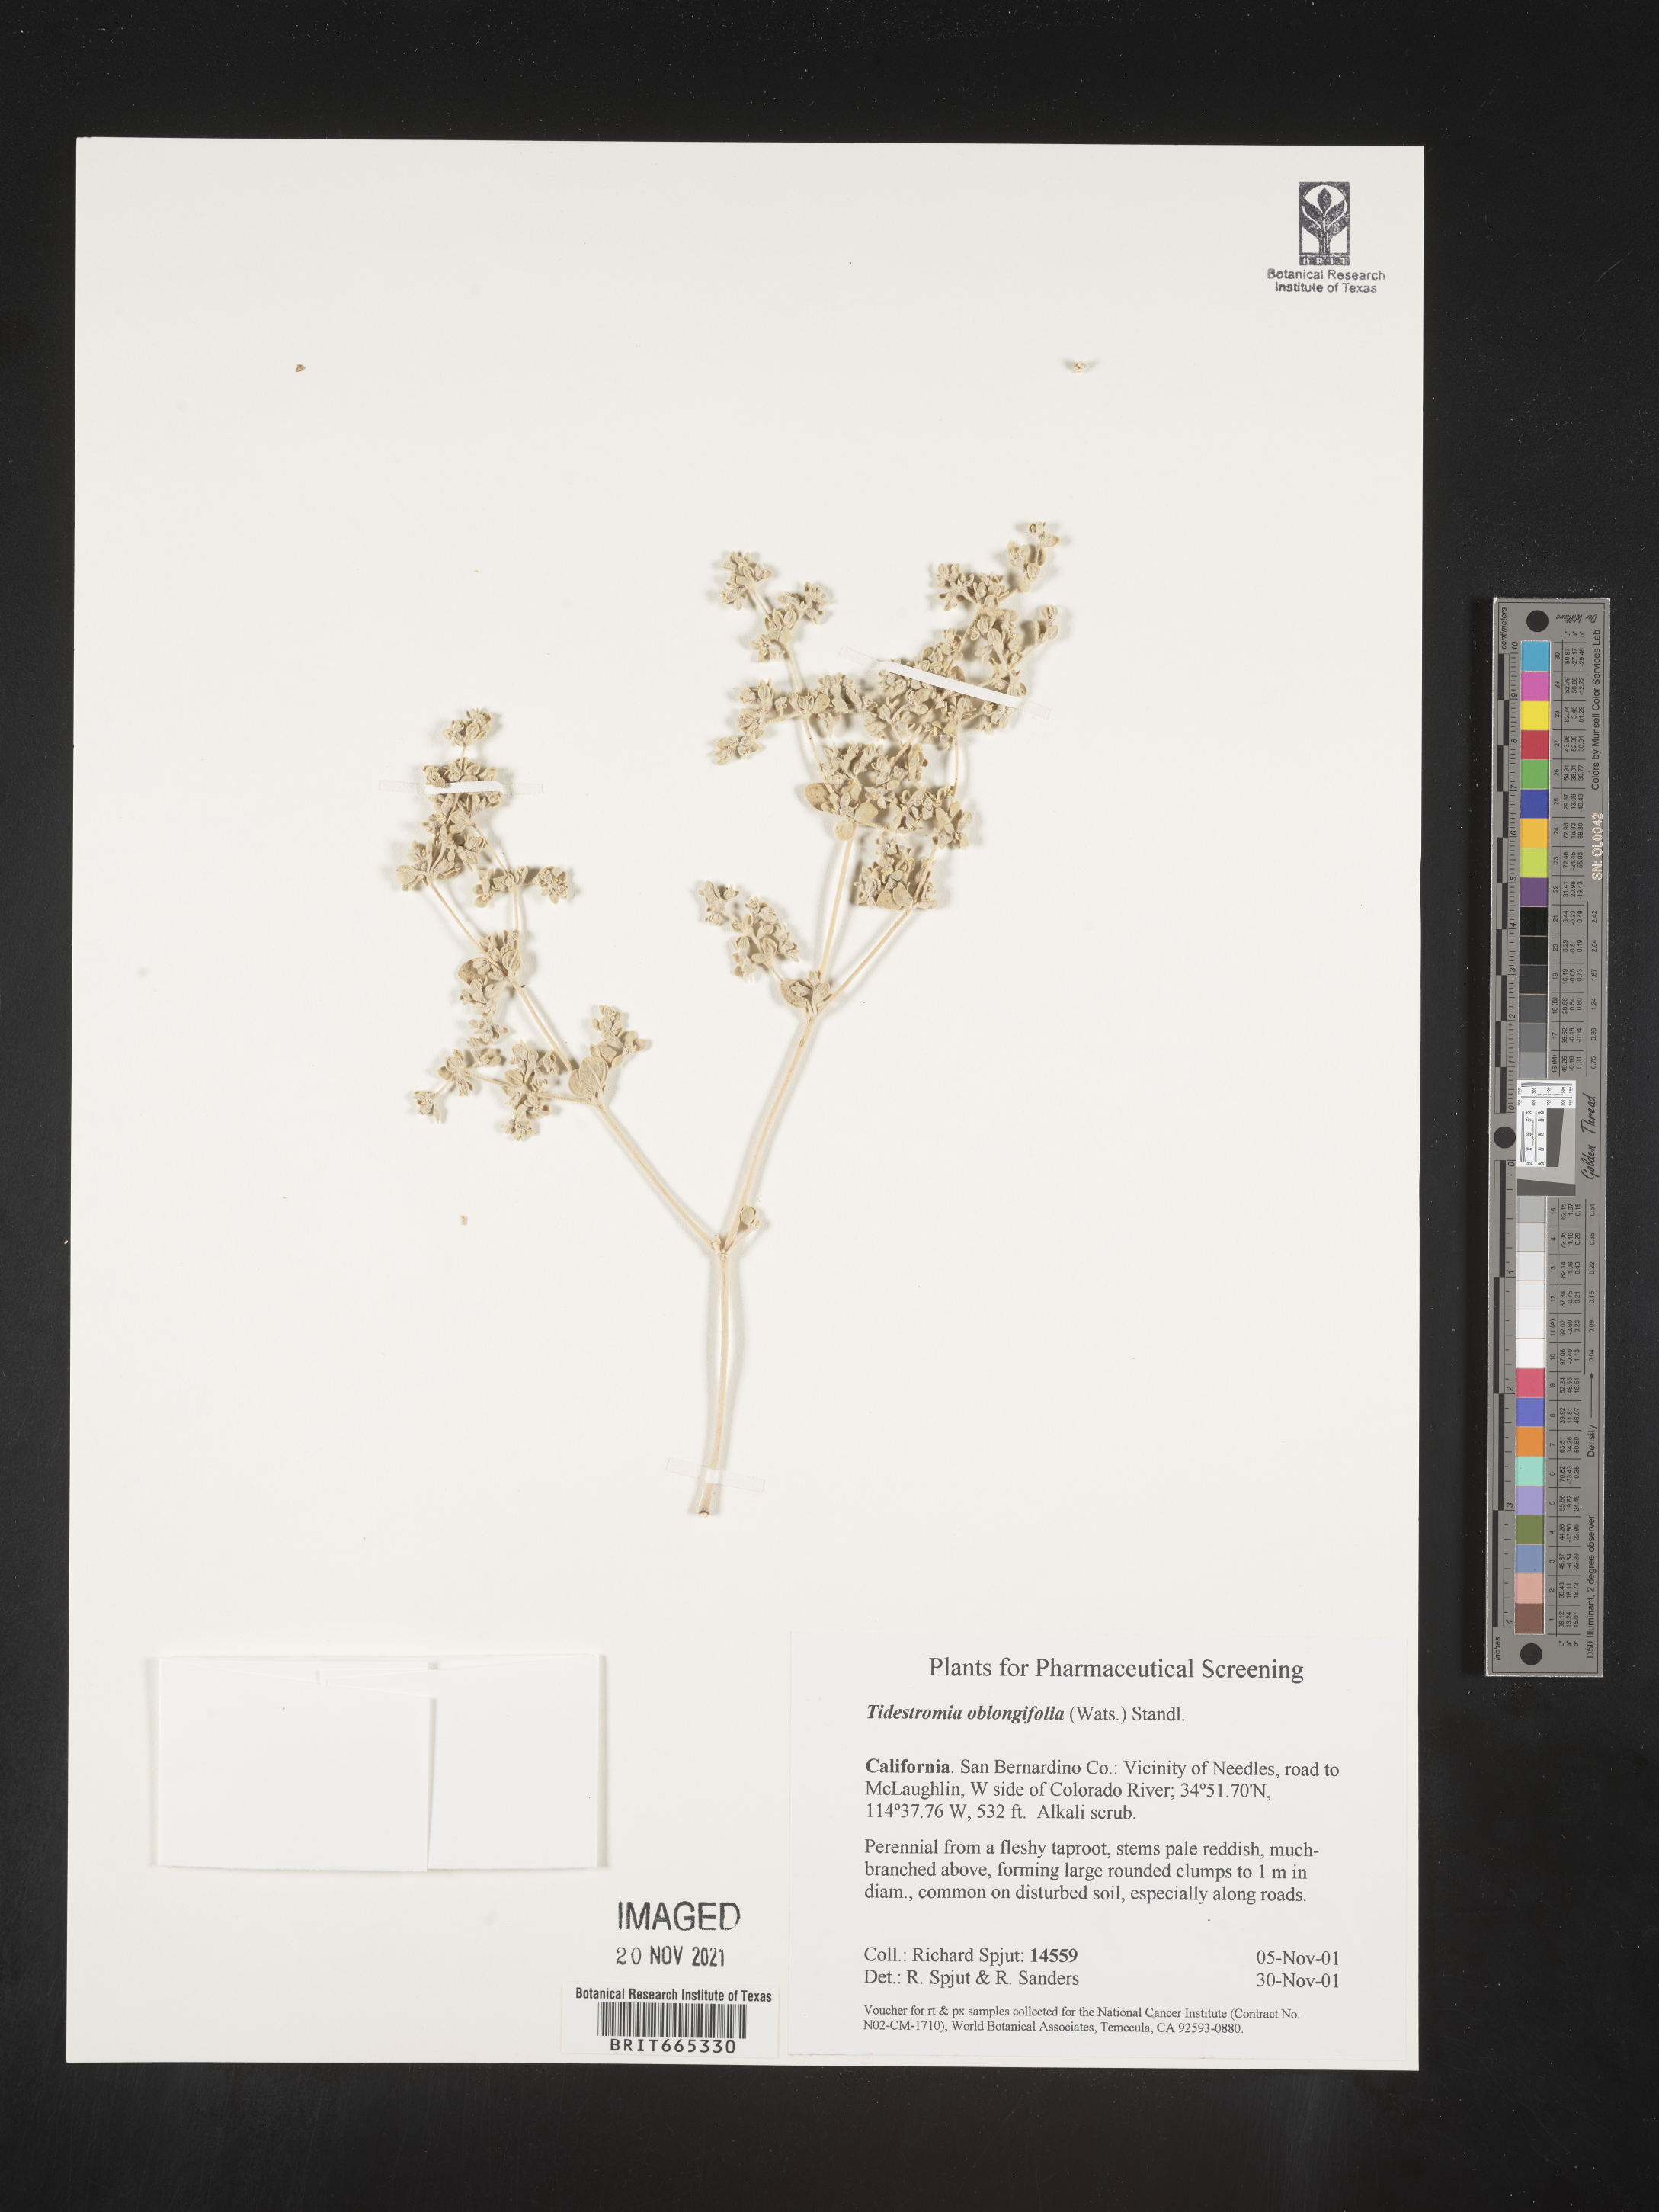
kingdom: Plantae
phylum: Tracheophyta
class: Magnoliopsida
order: Caryophyllales
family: Amaranthaceae
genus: Tidestromia
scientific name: Tidestromia suffruticosa
